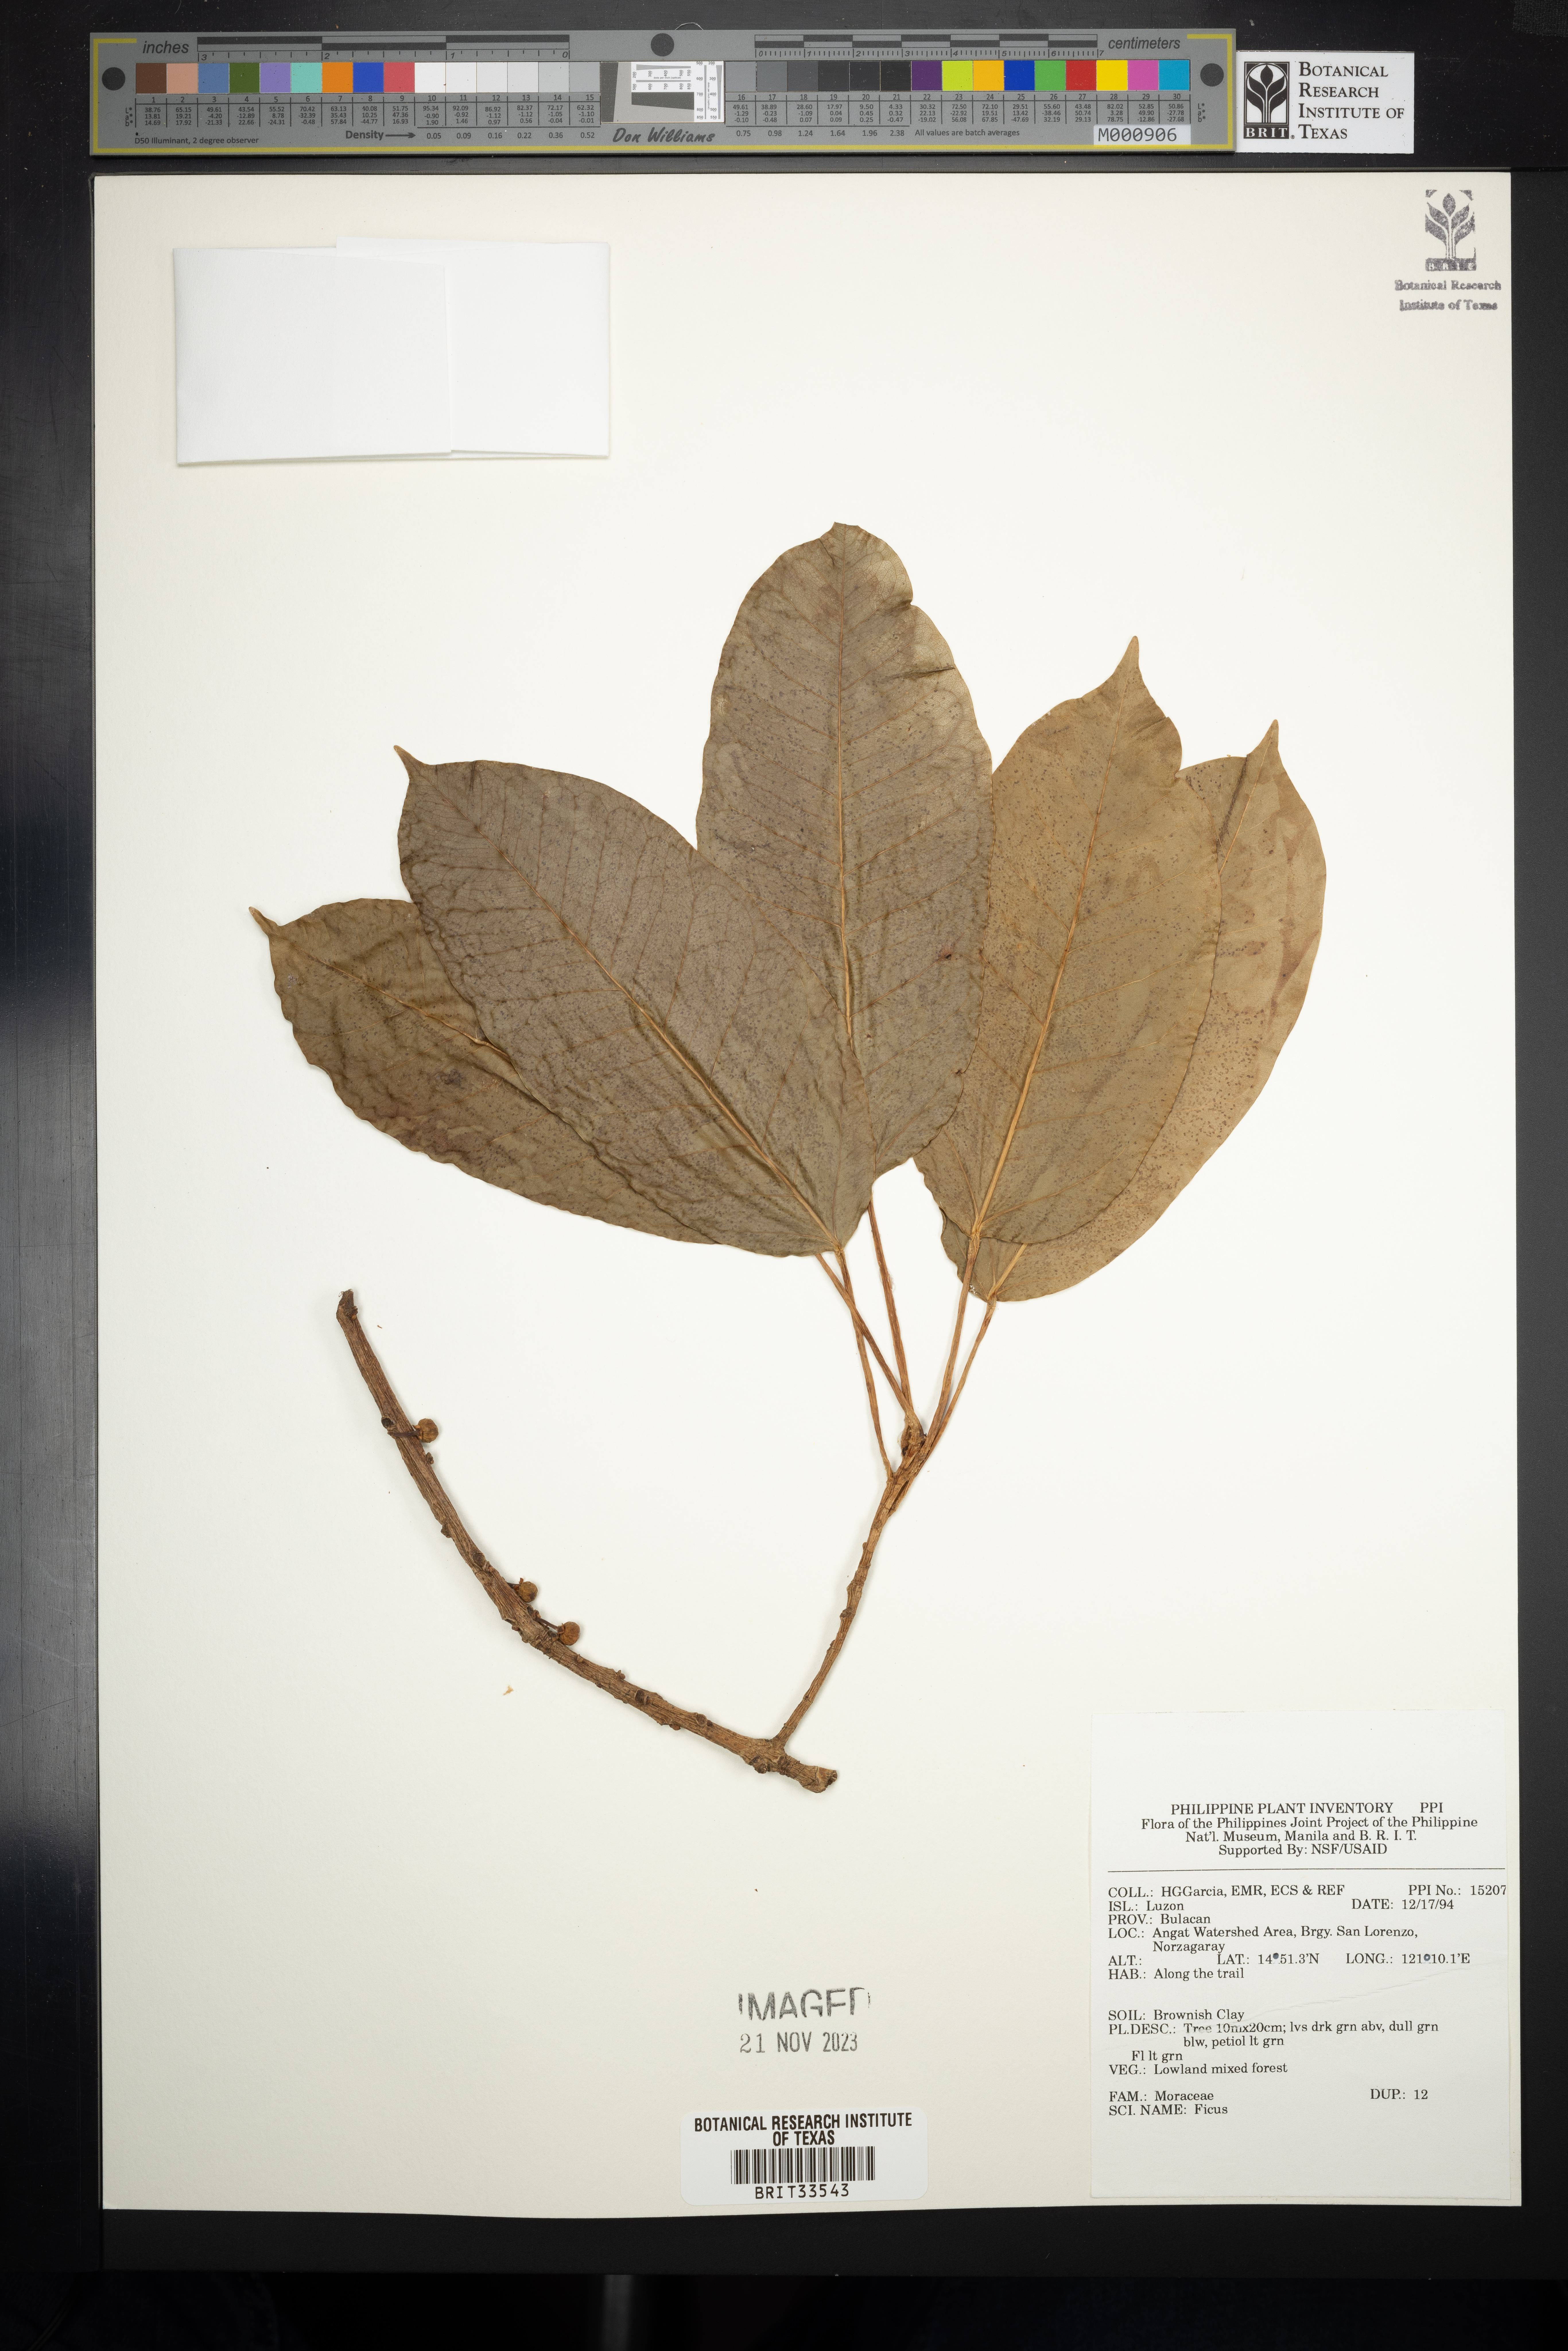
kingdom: Plantae
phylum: Tracheophyta
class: Magnoliopsida
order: Rosales
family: Moraceae
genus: Ficus
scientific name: Ficus
